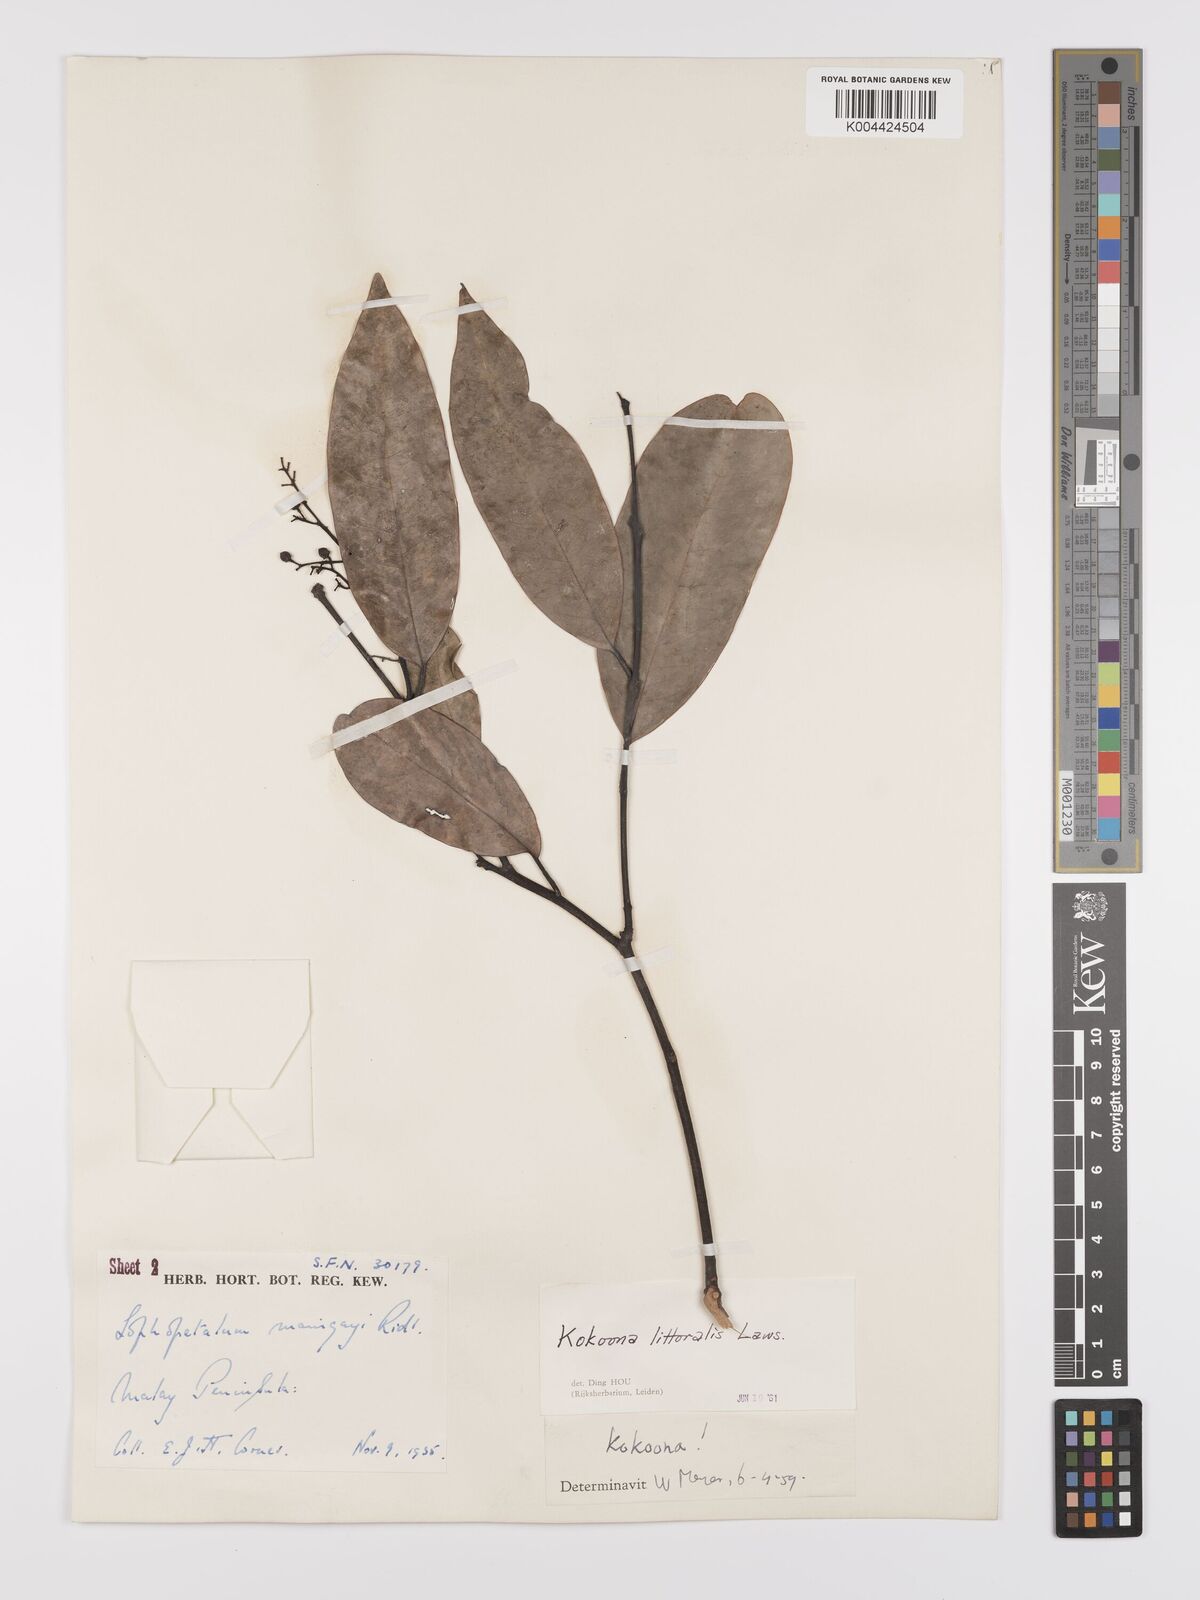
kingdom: Plantae
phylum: Tracheophyta
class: Magnoliopsida
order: Celastrales
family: Celastraceae
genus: Kokoona
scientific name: Kokoona littoralis
